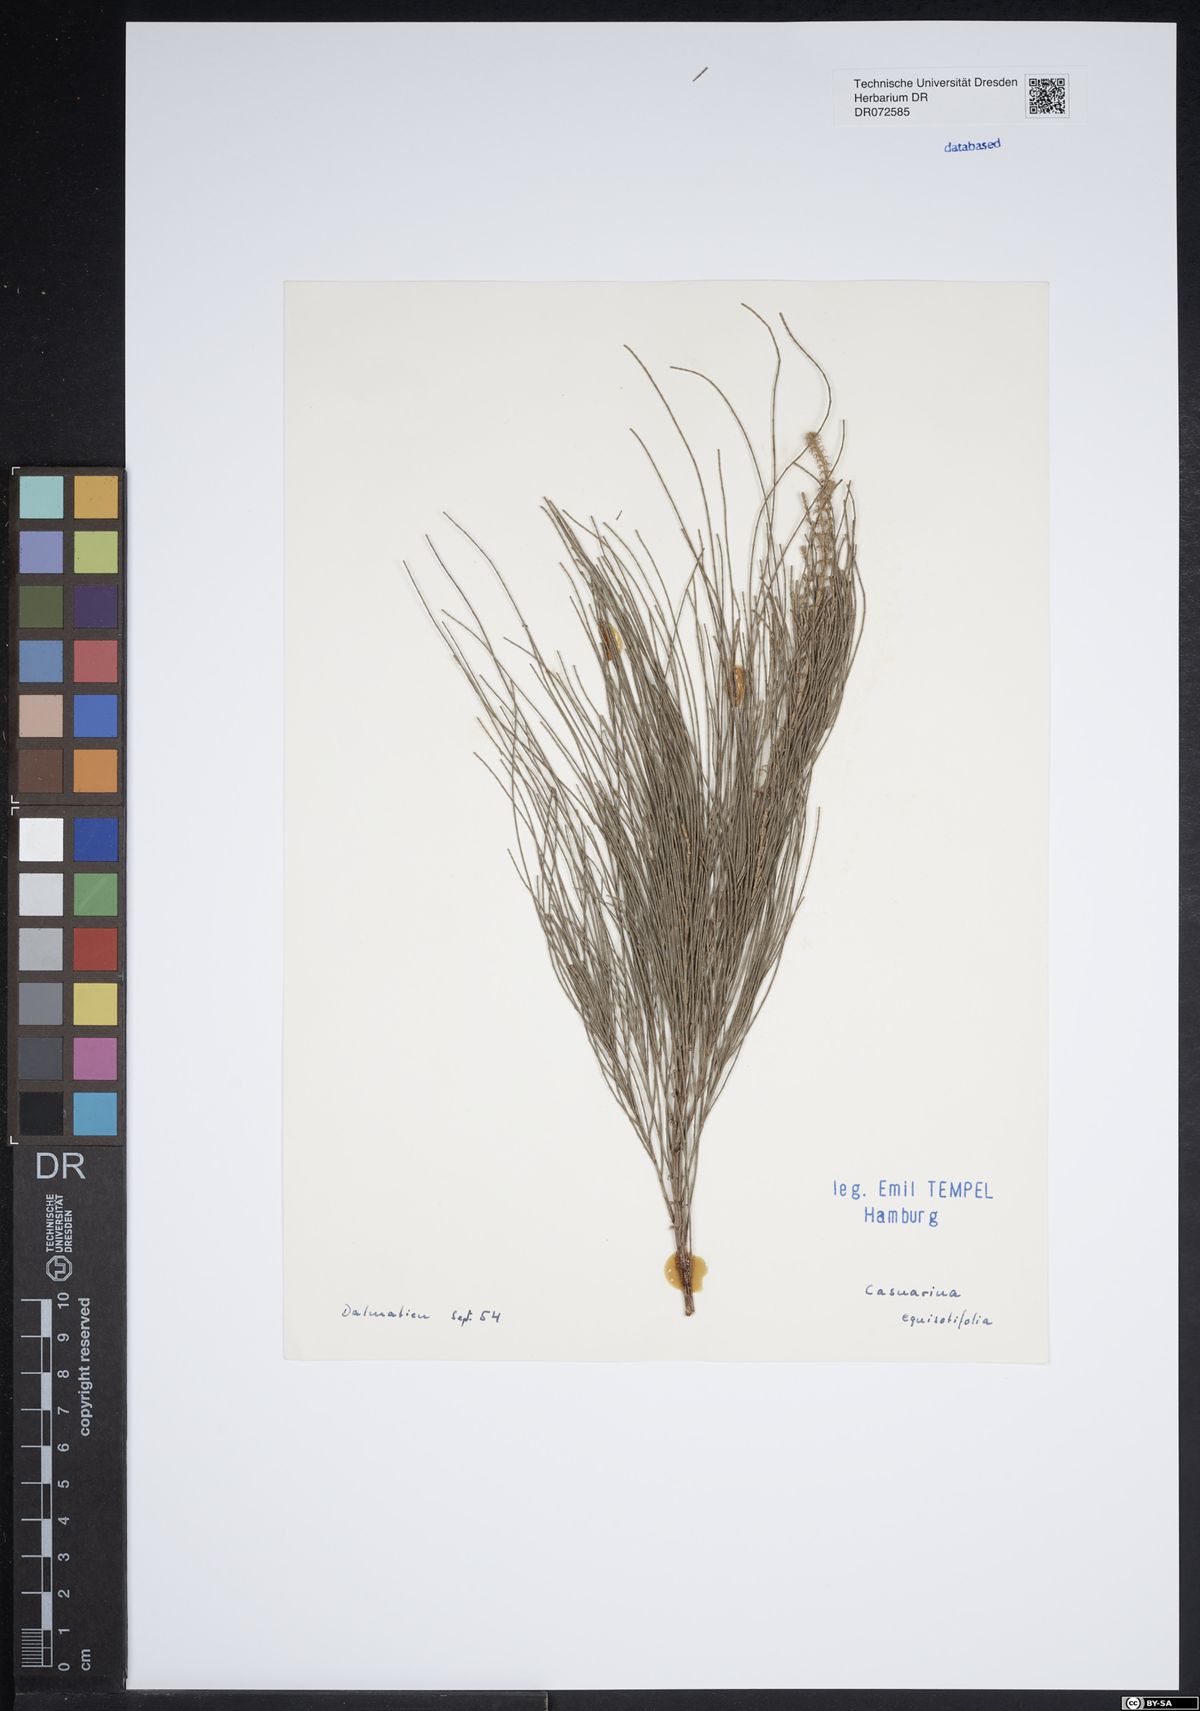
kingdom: Plantae
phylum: Tracheophyta
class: Magnoliopsida
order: Fagales
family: Casuarinaceae
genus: Casuarina
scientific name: Casuarina equisetifolia
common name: Beach sheoak
